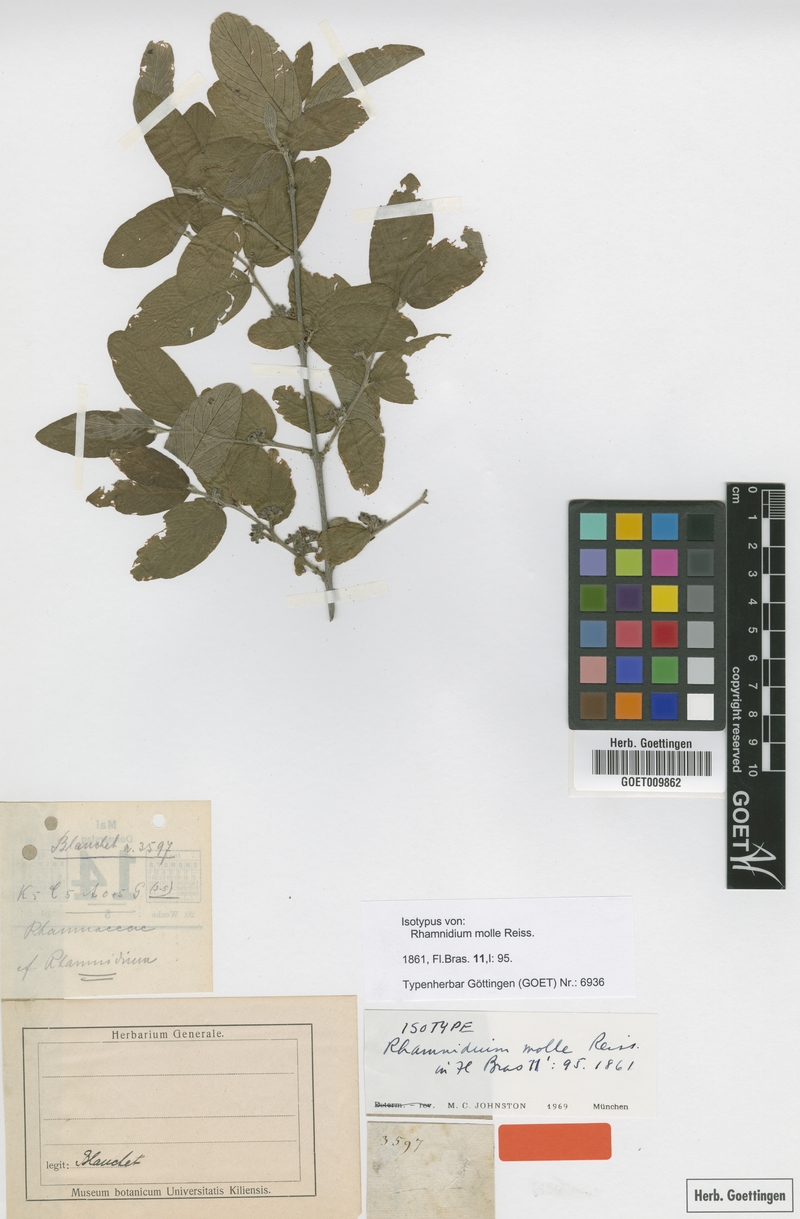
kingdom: Plantae
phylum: Tracheophyta
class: Magnoliopsida
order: Rosales
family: Rhamnaceae
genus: Rhamnidium
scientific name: Rhamnidium molle
